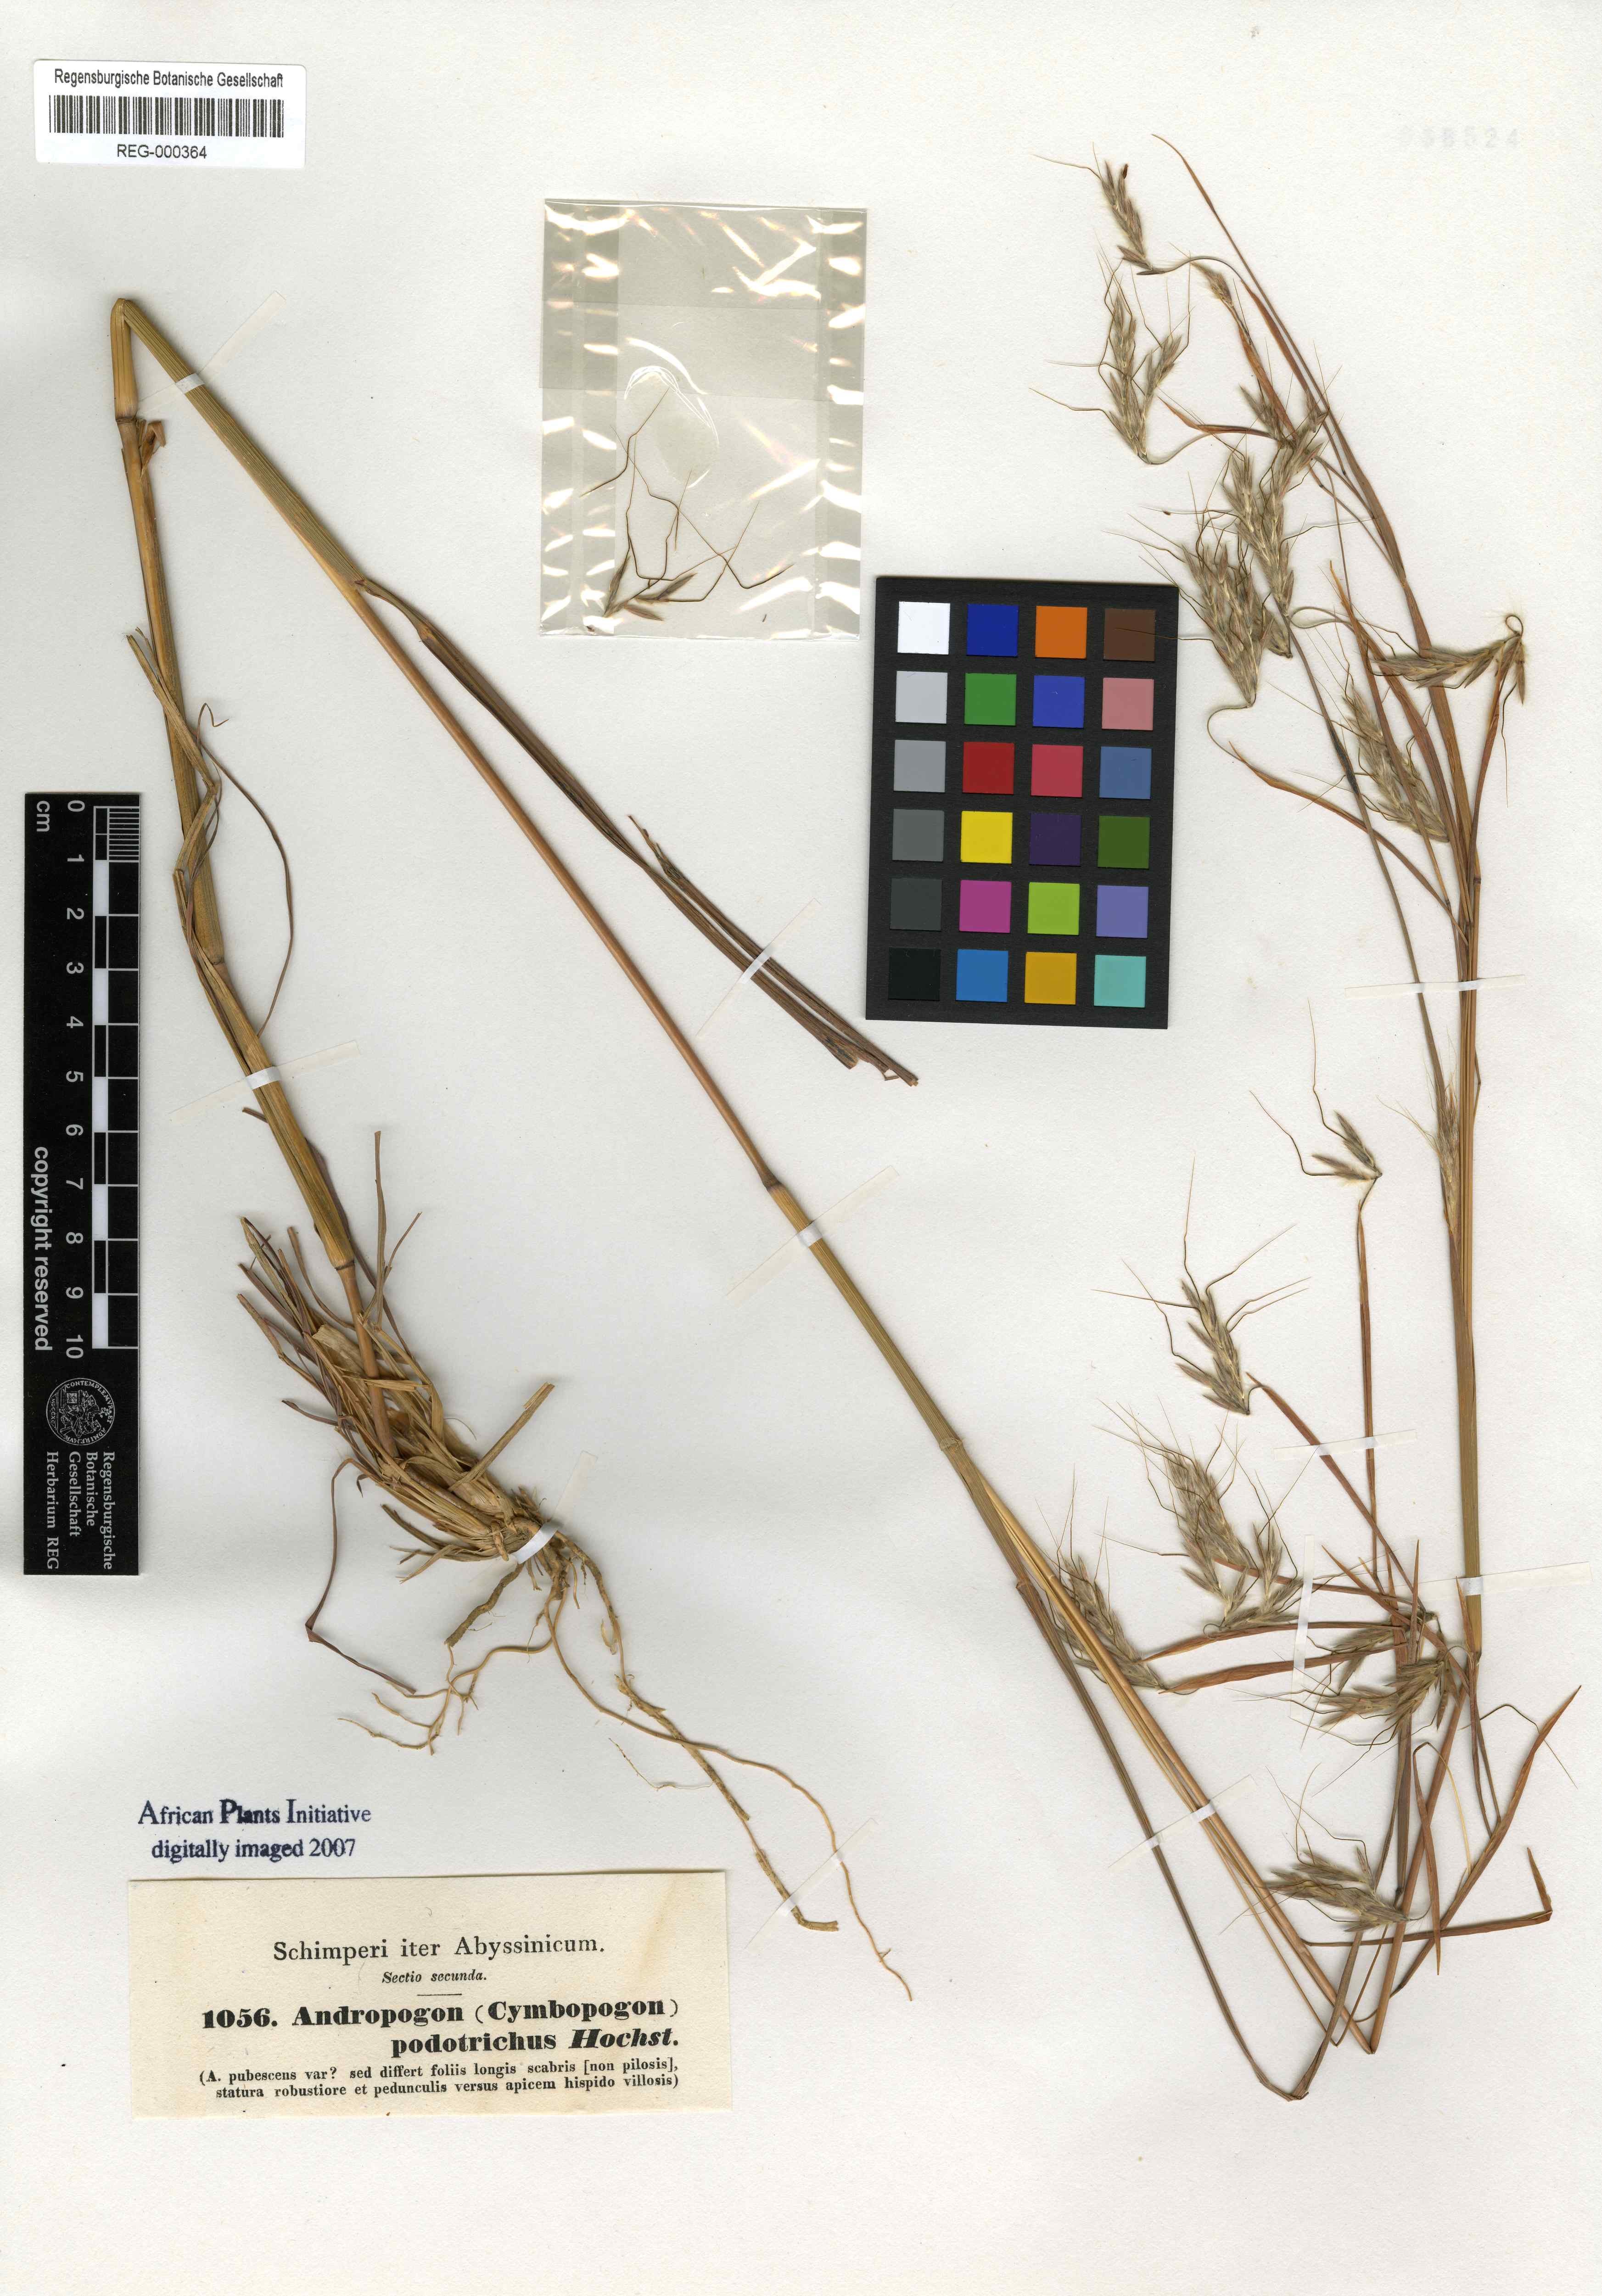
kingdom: Plantae
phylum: Tracheophyta
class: Liliopsida
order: Poales
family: Poaceae
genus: Hyparrhenia
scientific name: Hyparrhenia hirta
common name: Thatching grass
